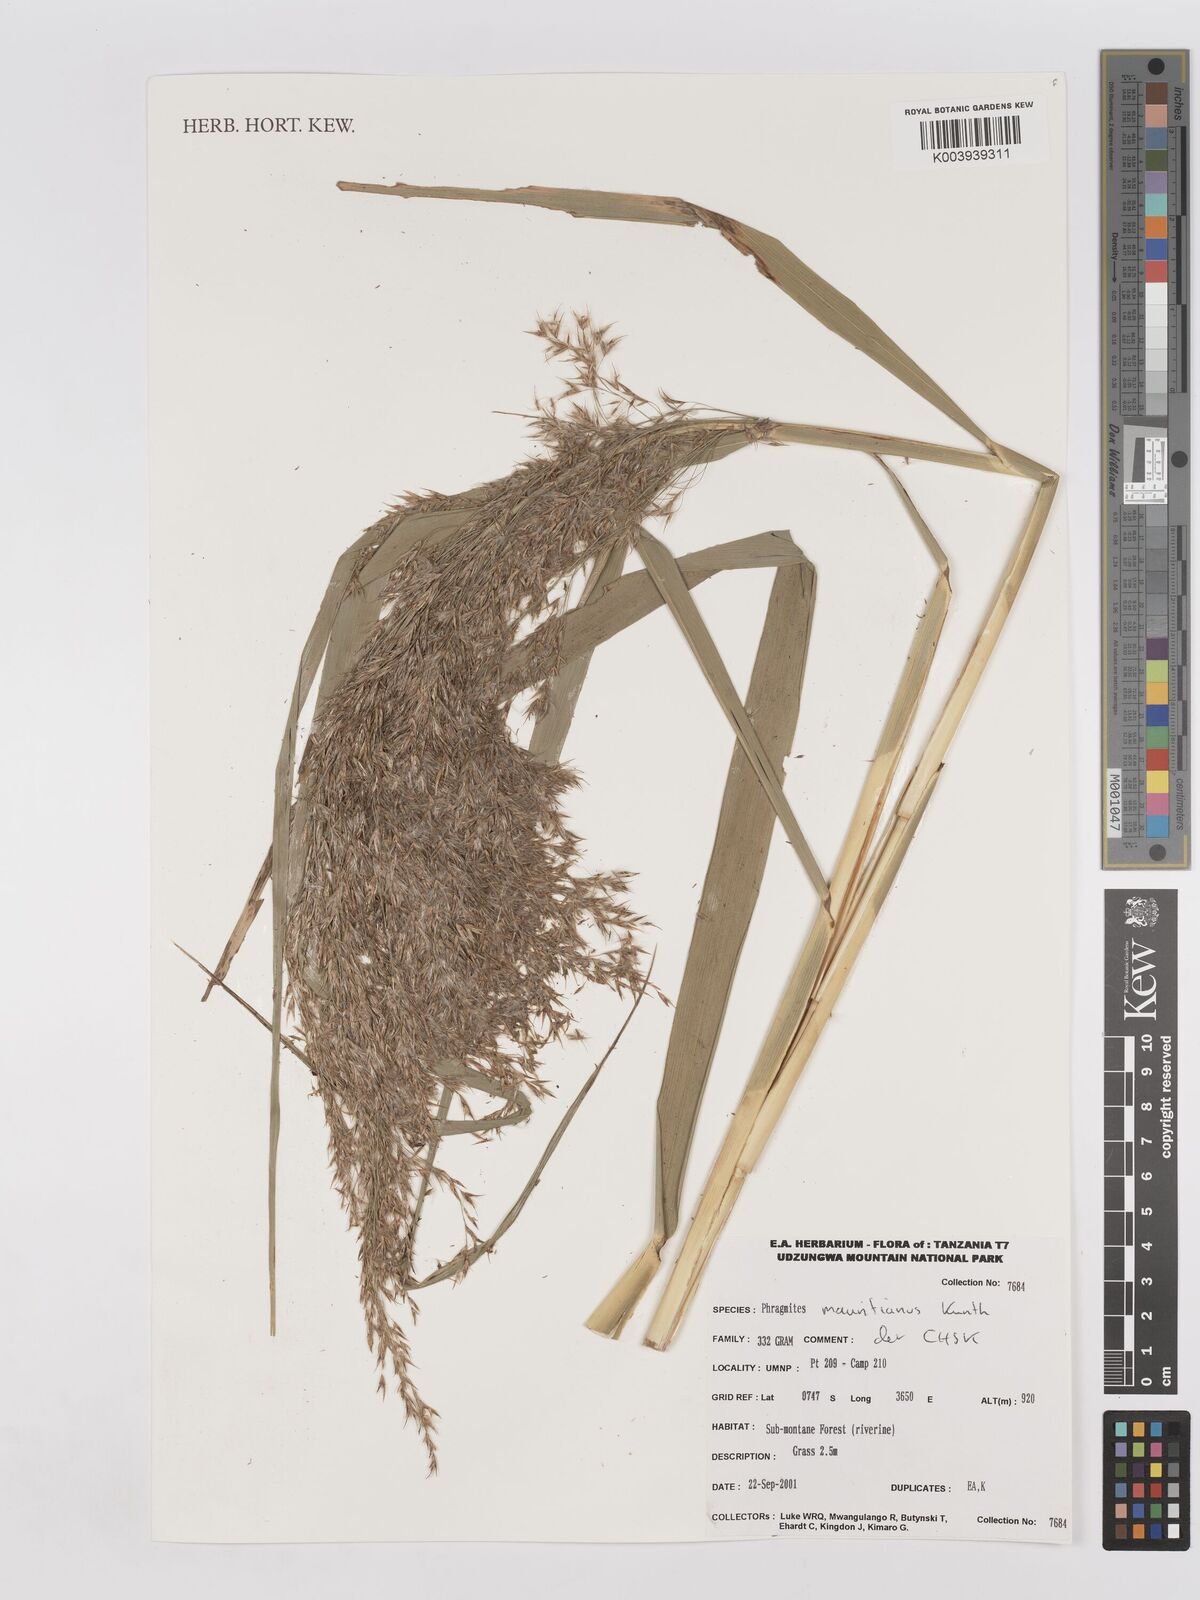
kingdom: Plantae
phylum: Tracheophyta
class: Liliopsida
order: Poales
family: Poaceae
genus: Phragmites
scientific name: Phragmites mauritianus
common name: Reed grass
